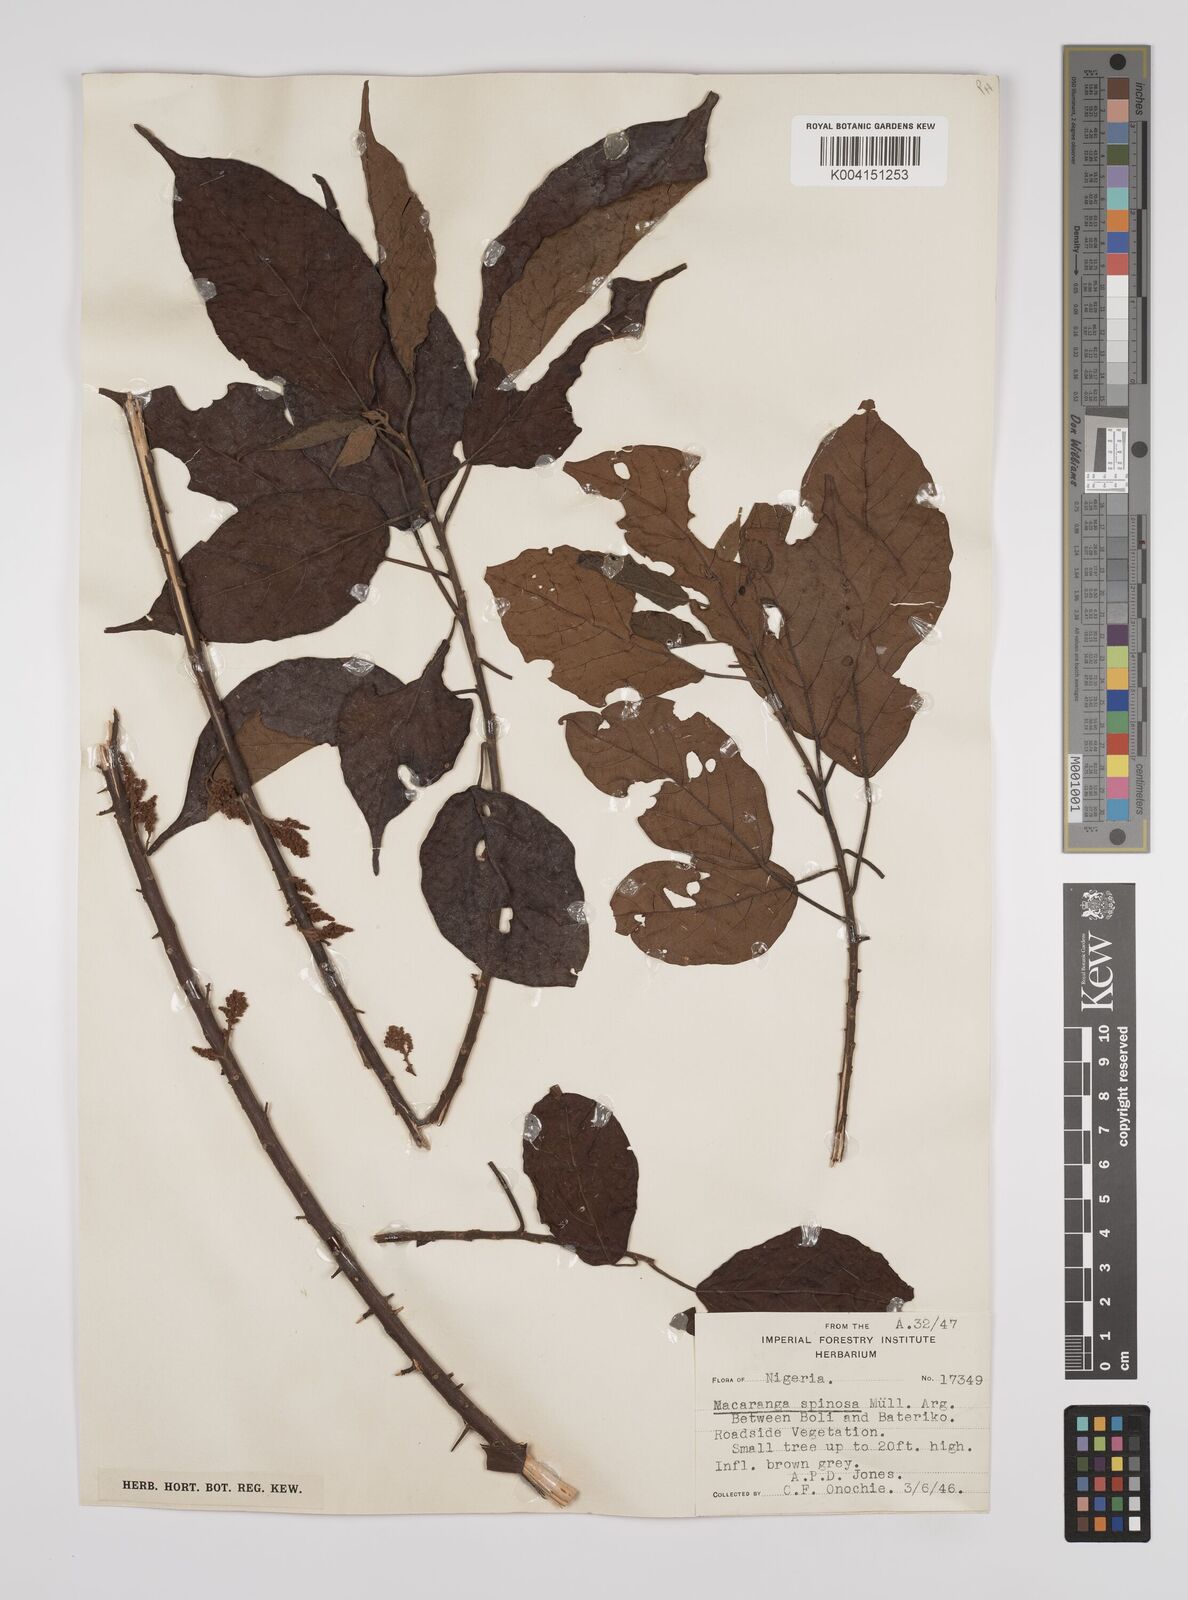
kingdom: Plantae
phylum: Tracheophyta
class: Magnoliopsida
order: Malpighiales
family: Euphorbiaceae
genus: Macaranga
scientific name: Macaranga spinosa
